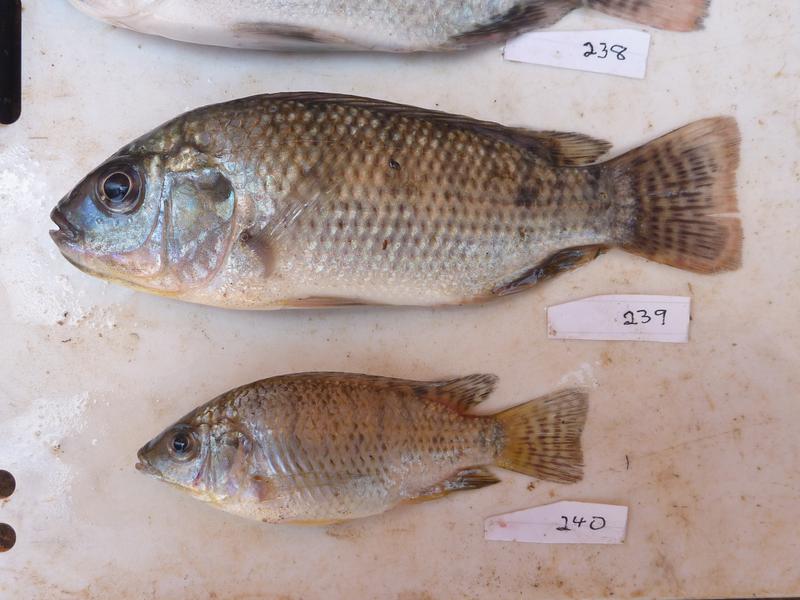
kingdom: Animalia
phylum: Chordata
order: Perciformes
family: Cichlidae
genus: Oreochromis
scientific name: Oreochromis
